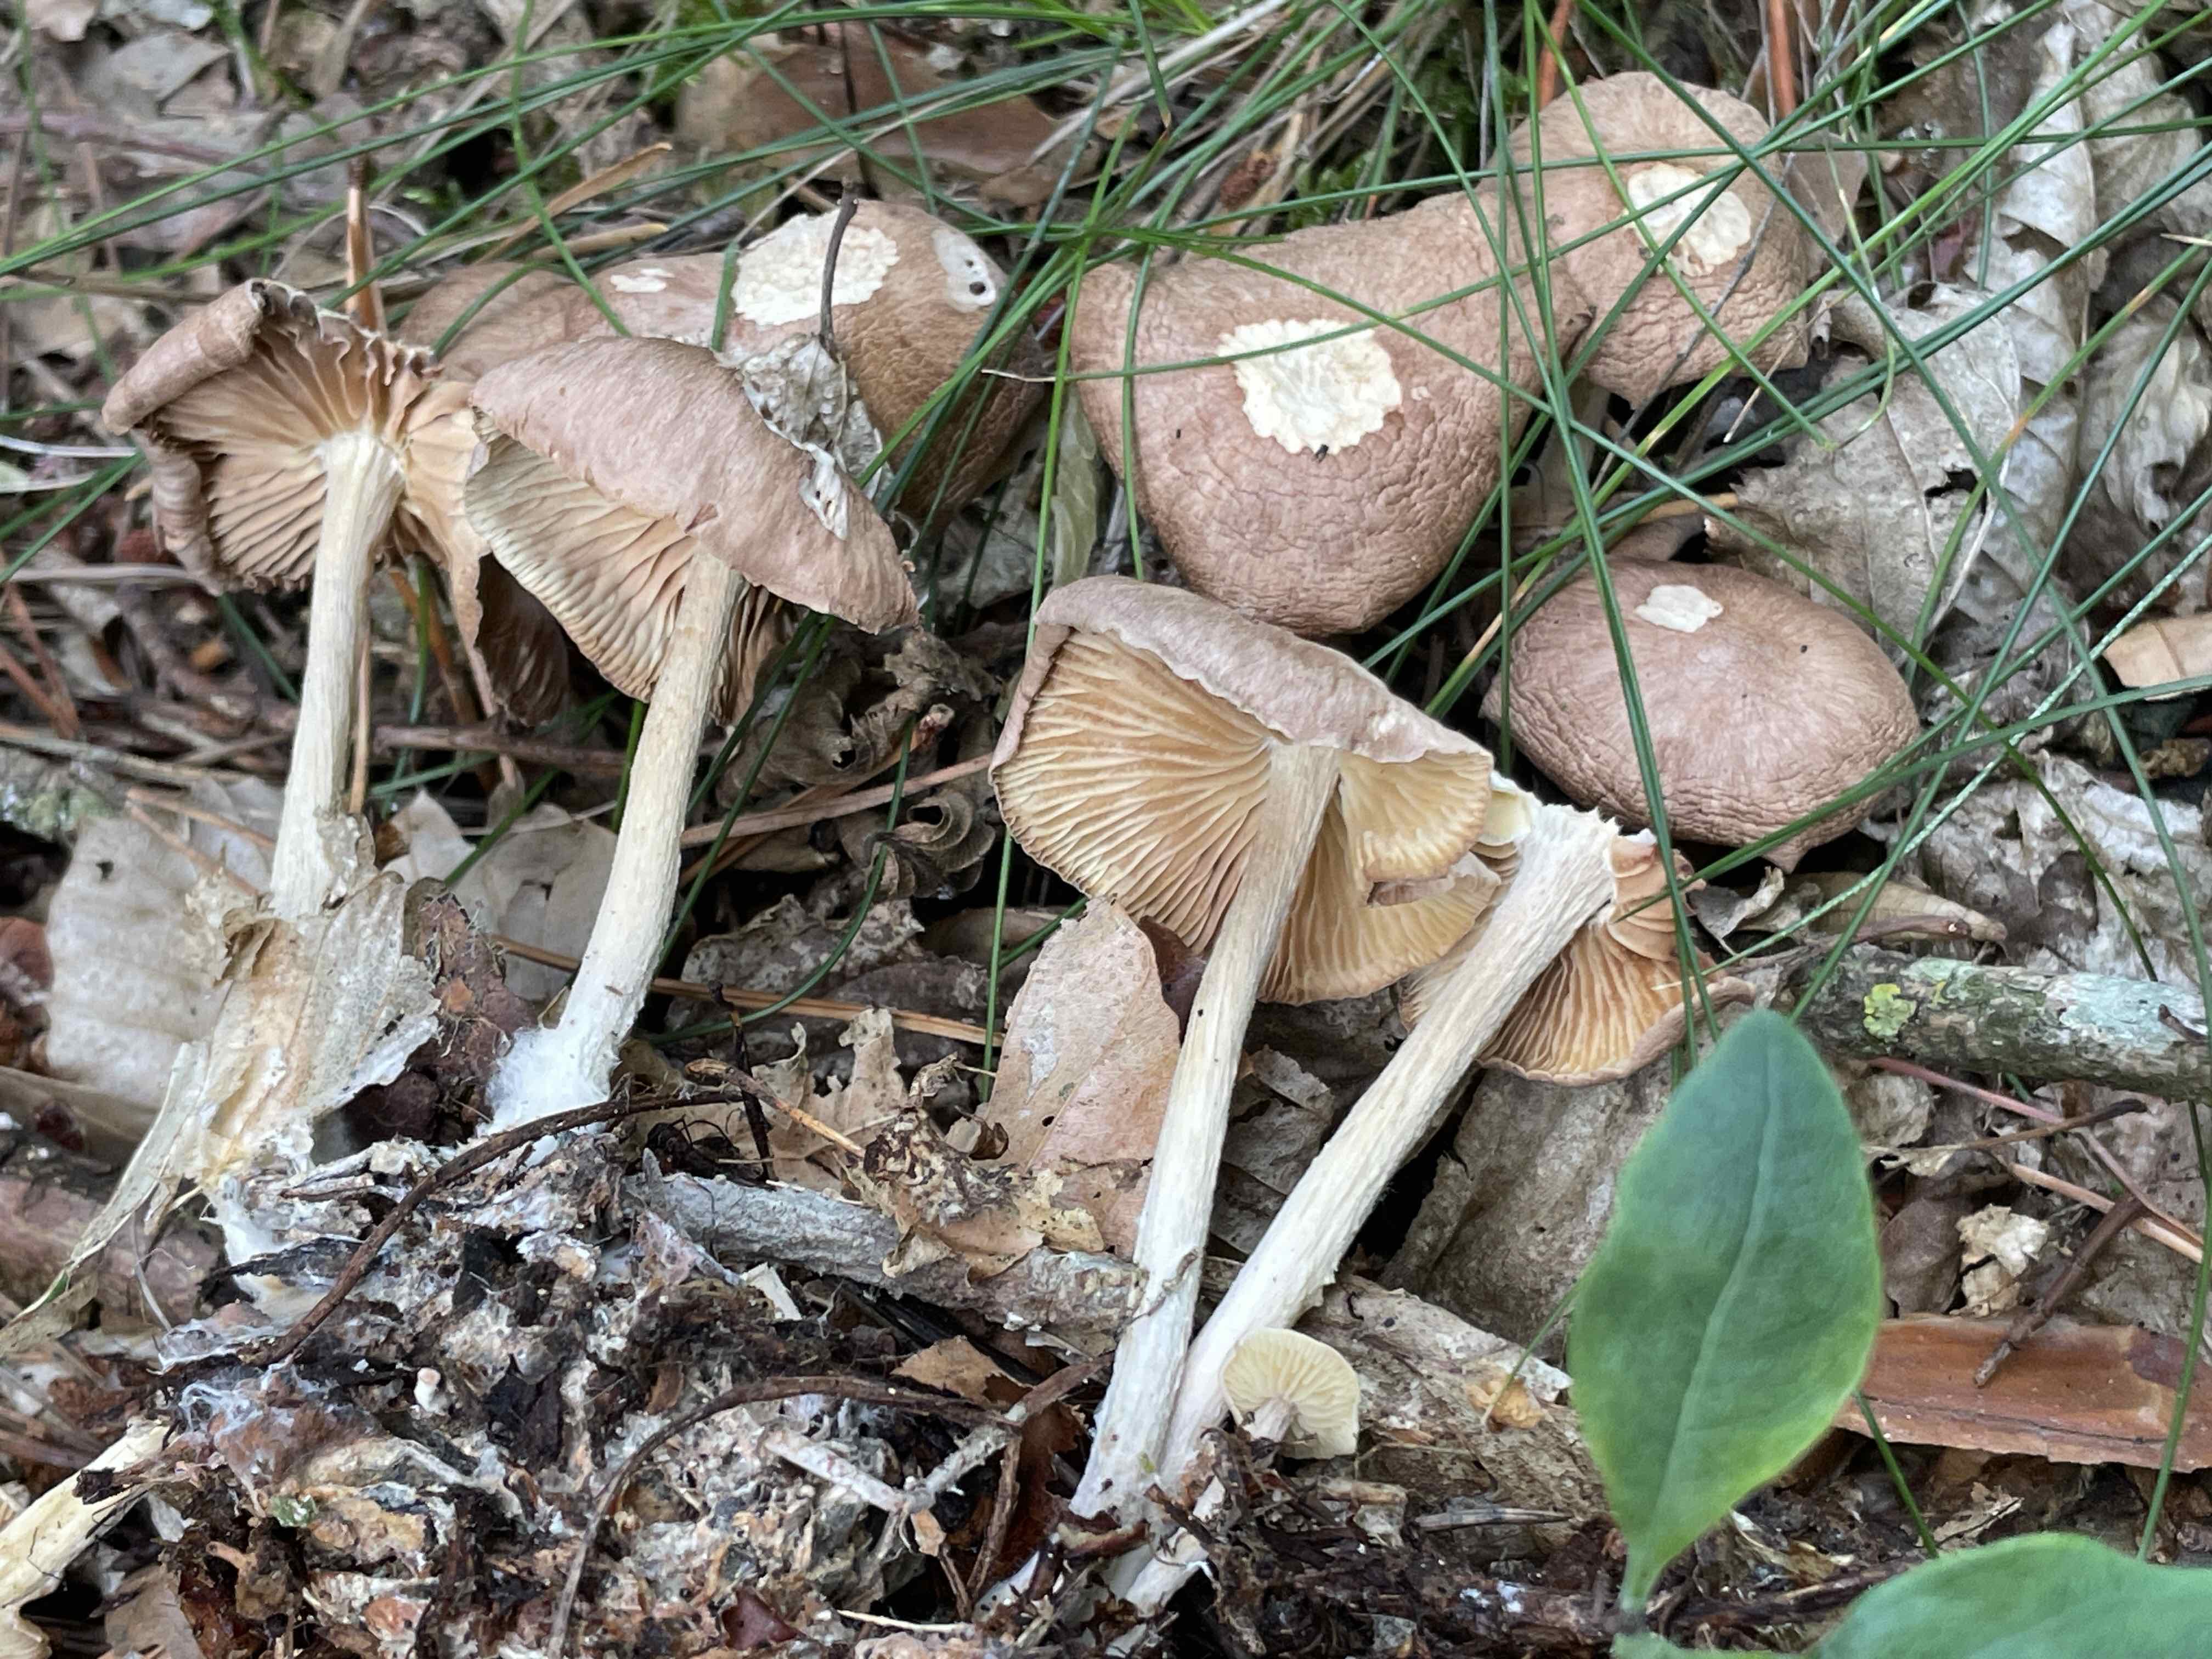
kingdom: Fungi
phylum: Basidiomycota
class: Agaricomycetes
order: Agaricales
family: Omphalotaceae
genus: Collybiopsis
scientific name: Collybiopsis peronata
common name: bestøvlet fladhat
